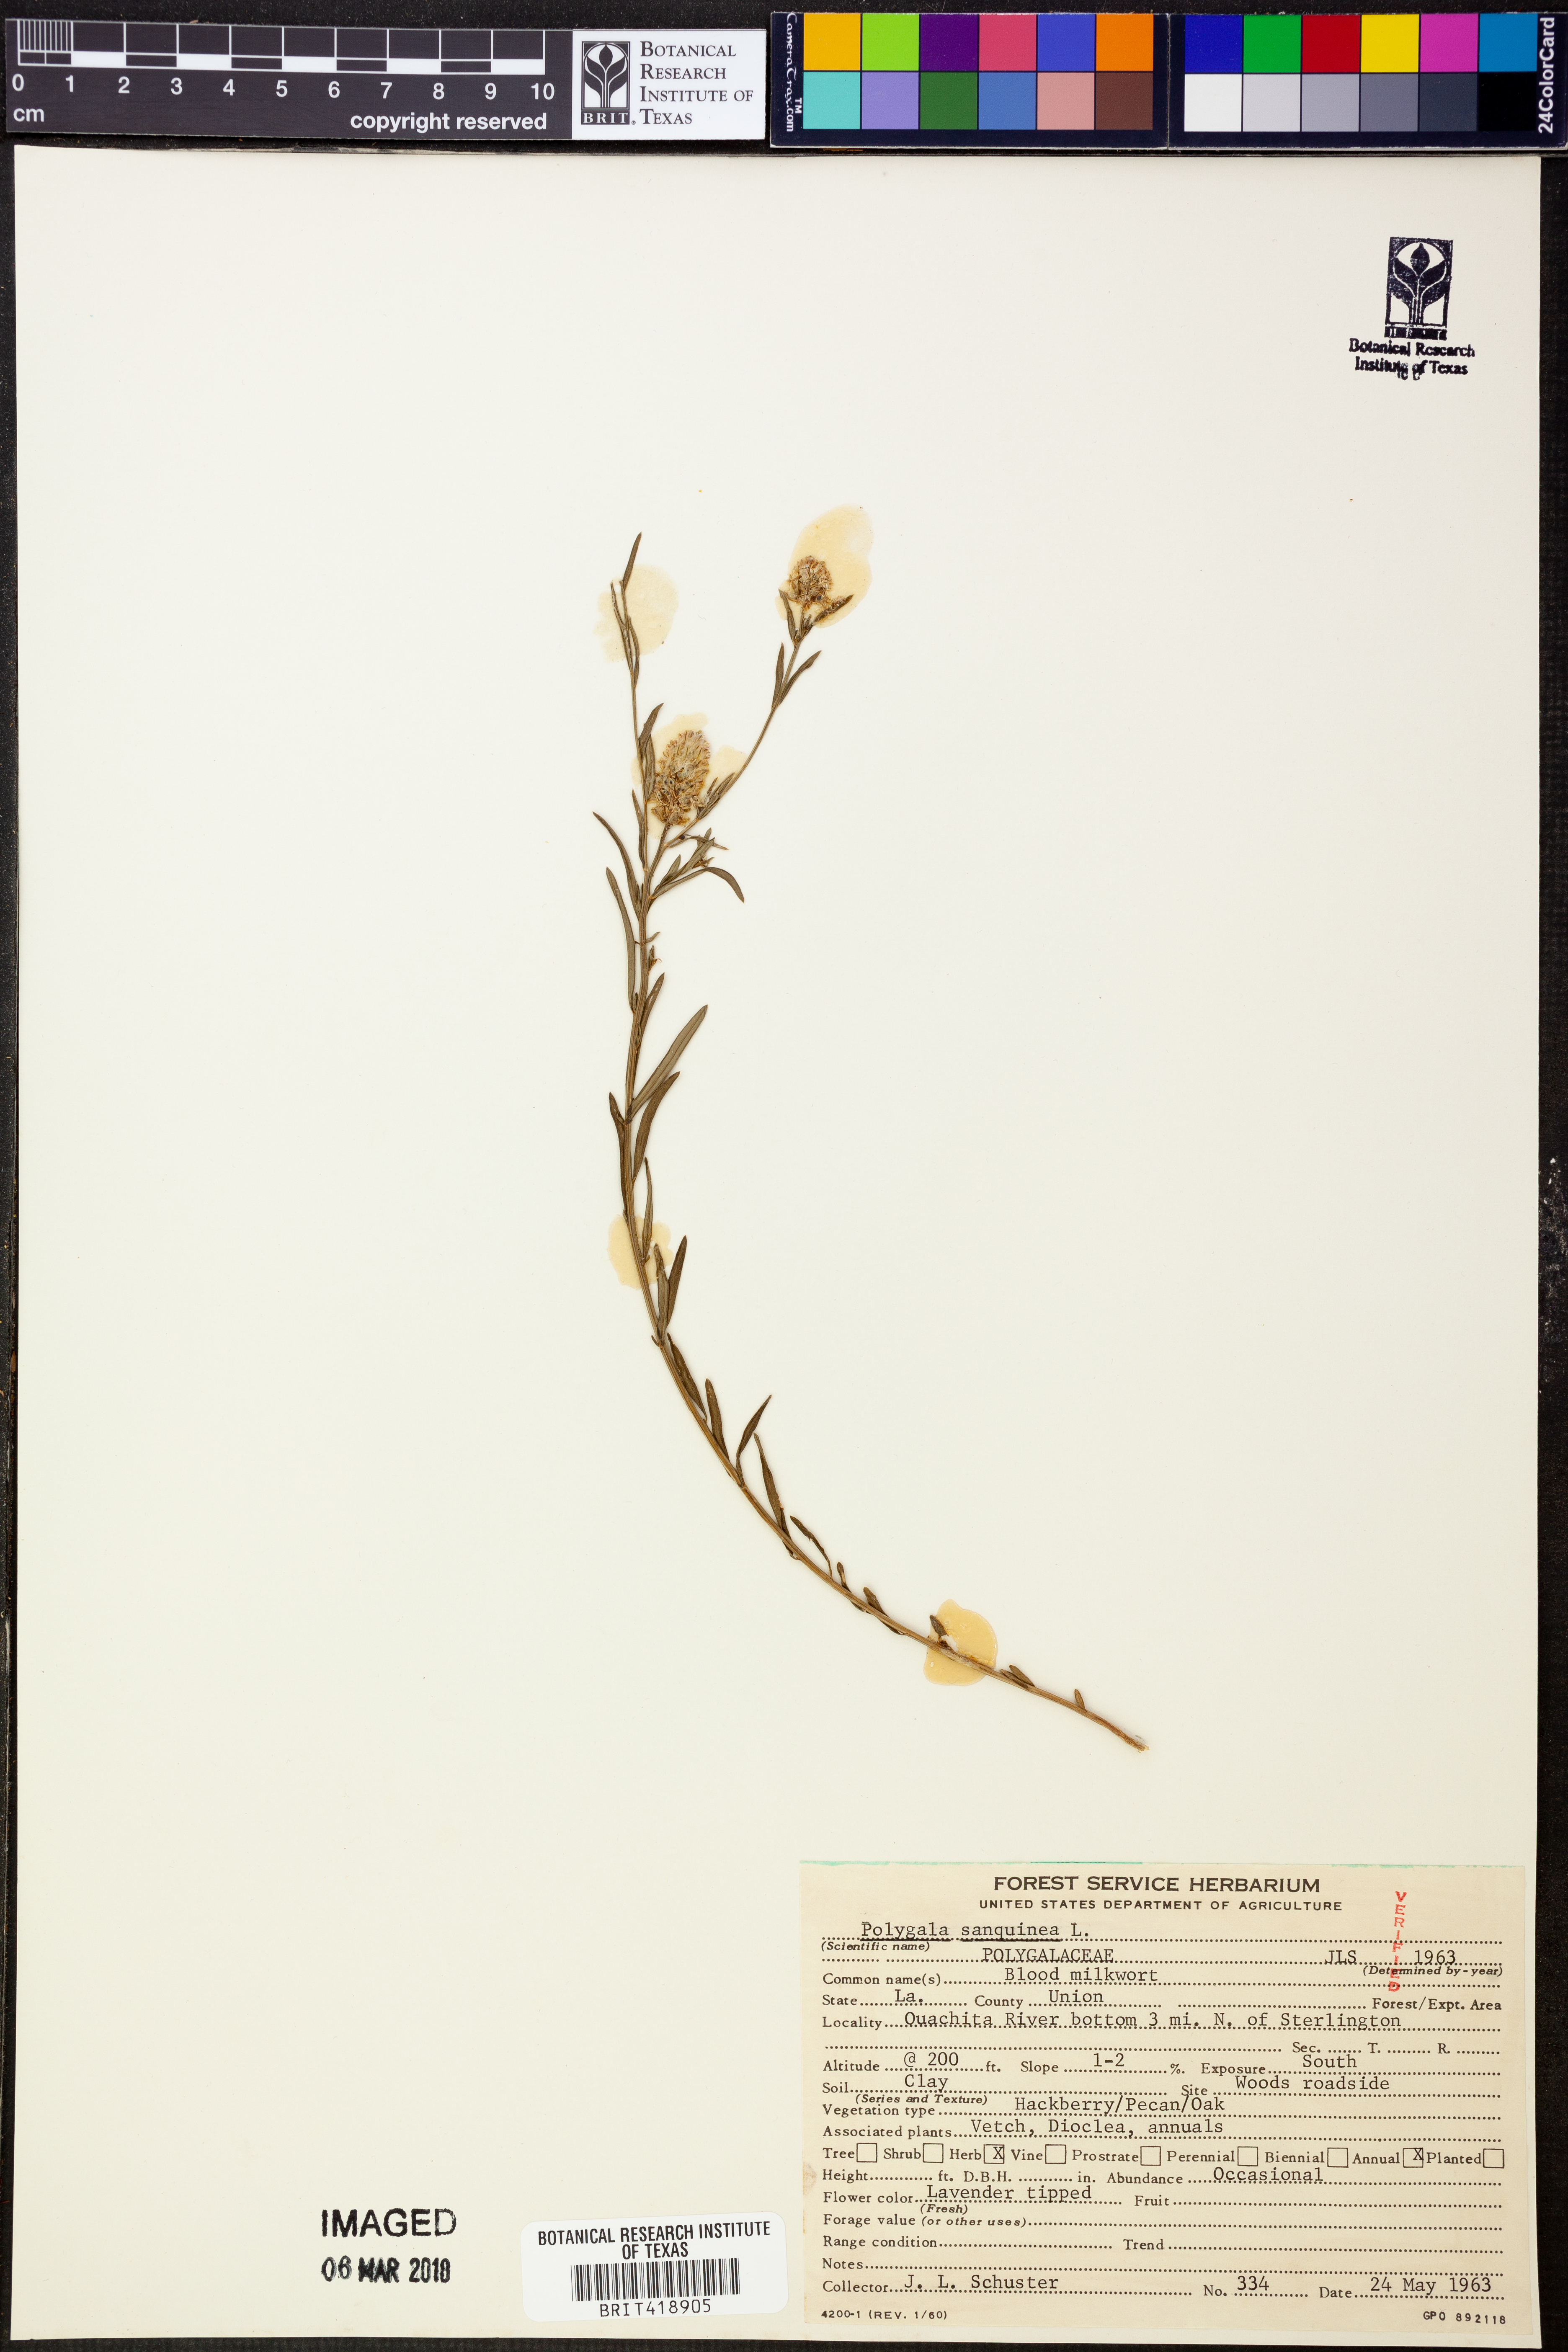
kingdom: Plantae
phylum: Tracheophyta
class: Magnoliopsida
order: Fabales
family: Polygalaceae
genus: Polygala
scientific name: Polygala sanguinea
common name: Blood milkwort
